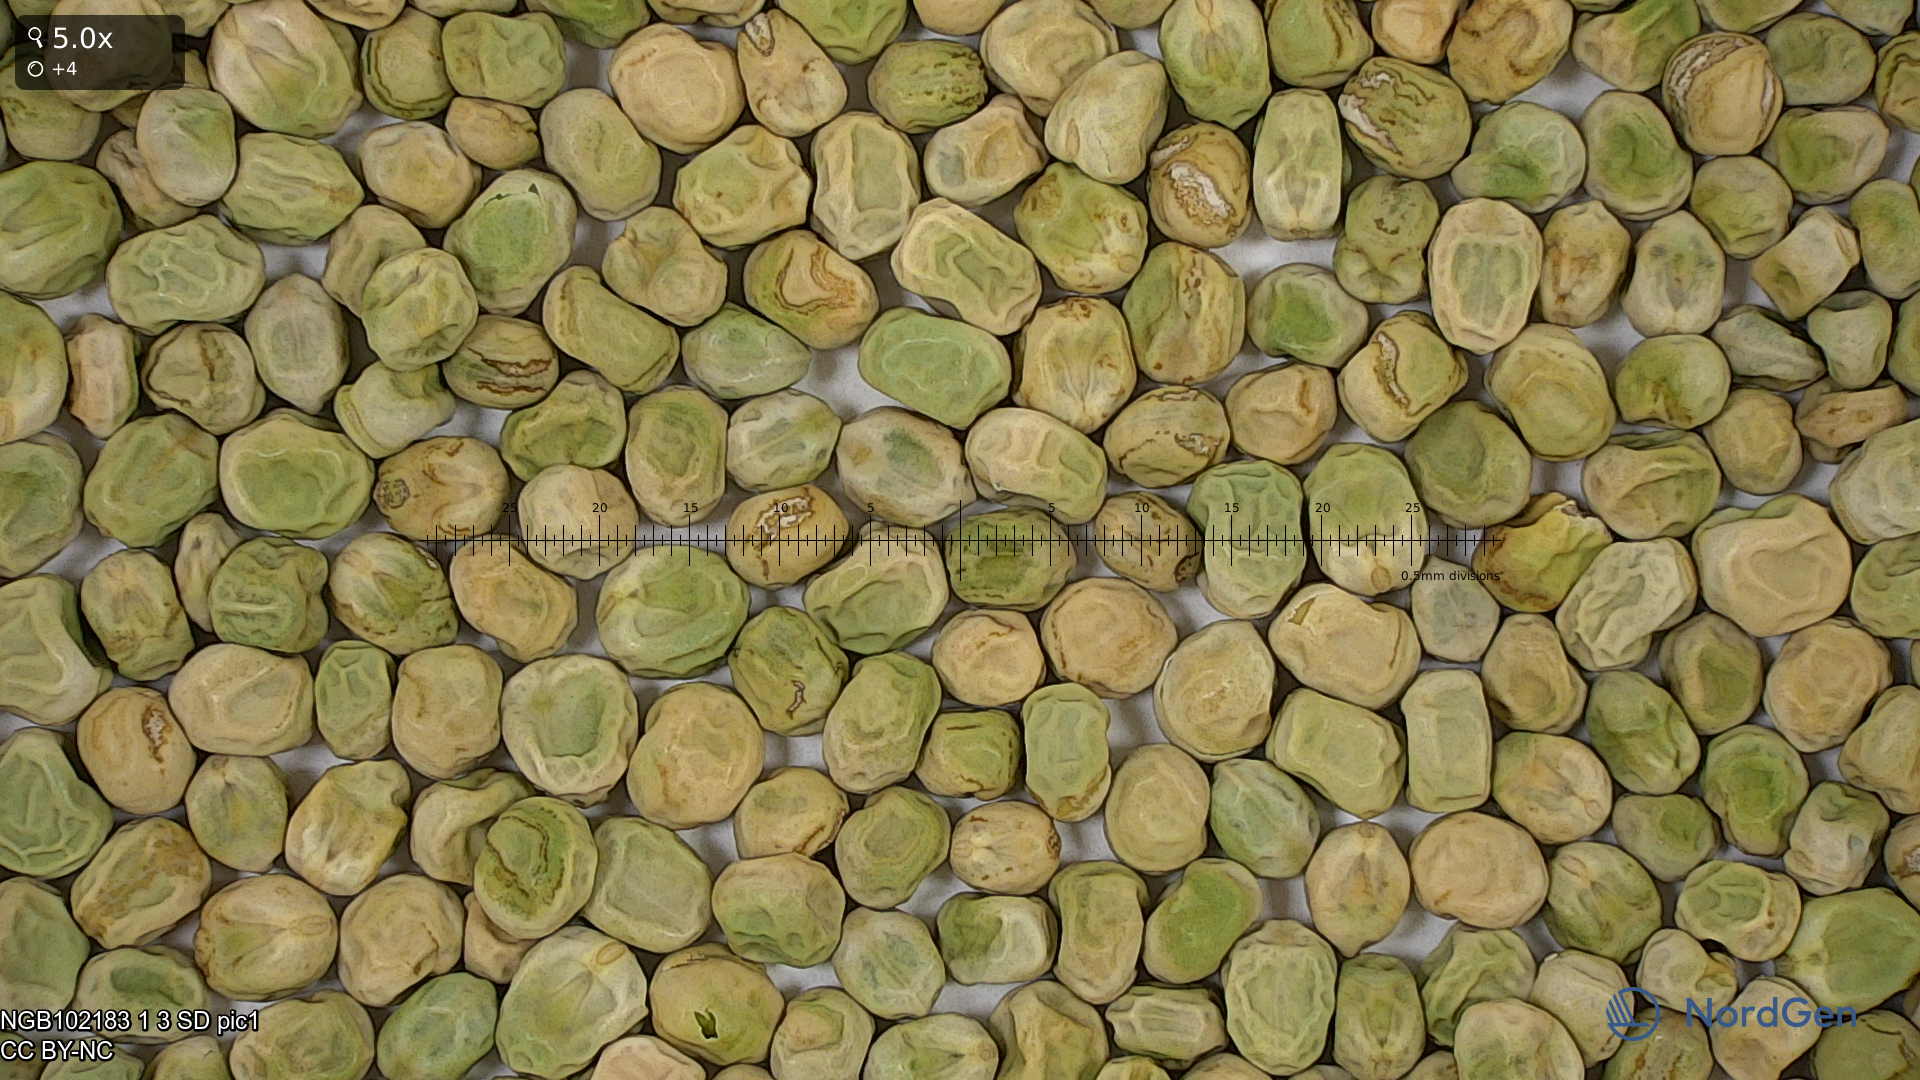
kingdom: Plantae
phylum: Tracheophyta
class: Magnoliopsida
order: Fabales
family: Fabaceae
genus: Lathyrus
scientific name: Lathyrus oleraceus
